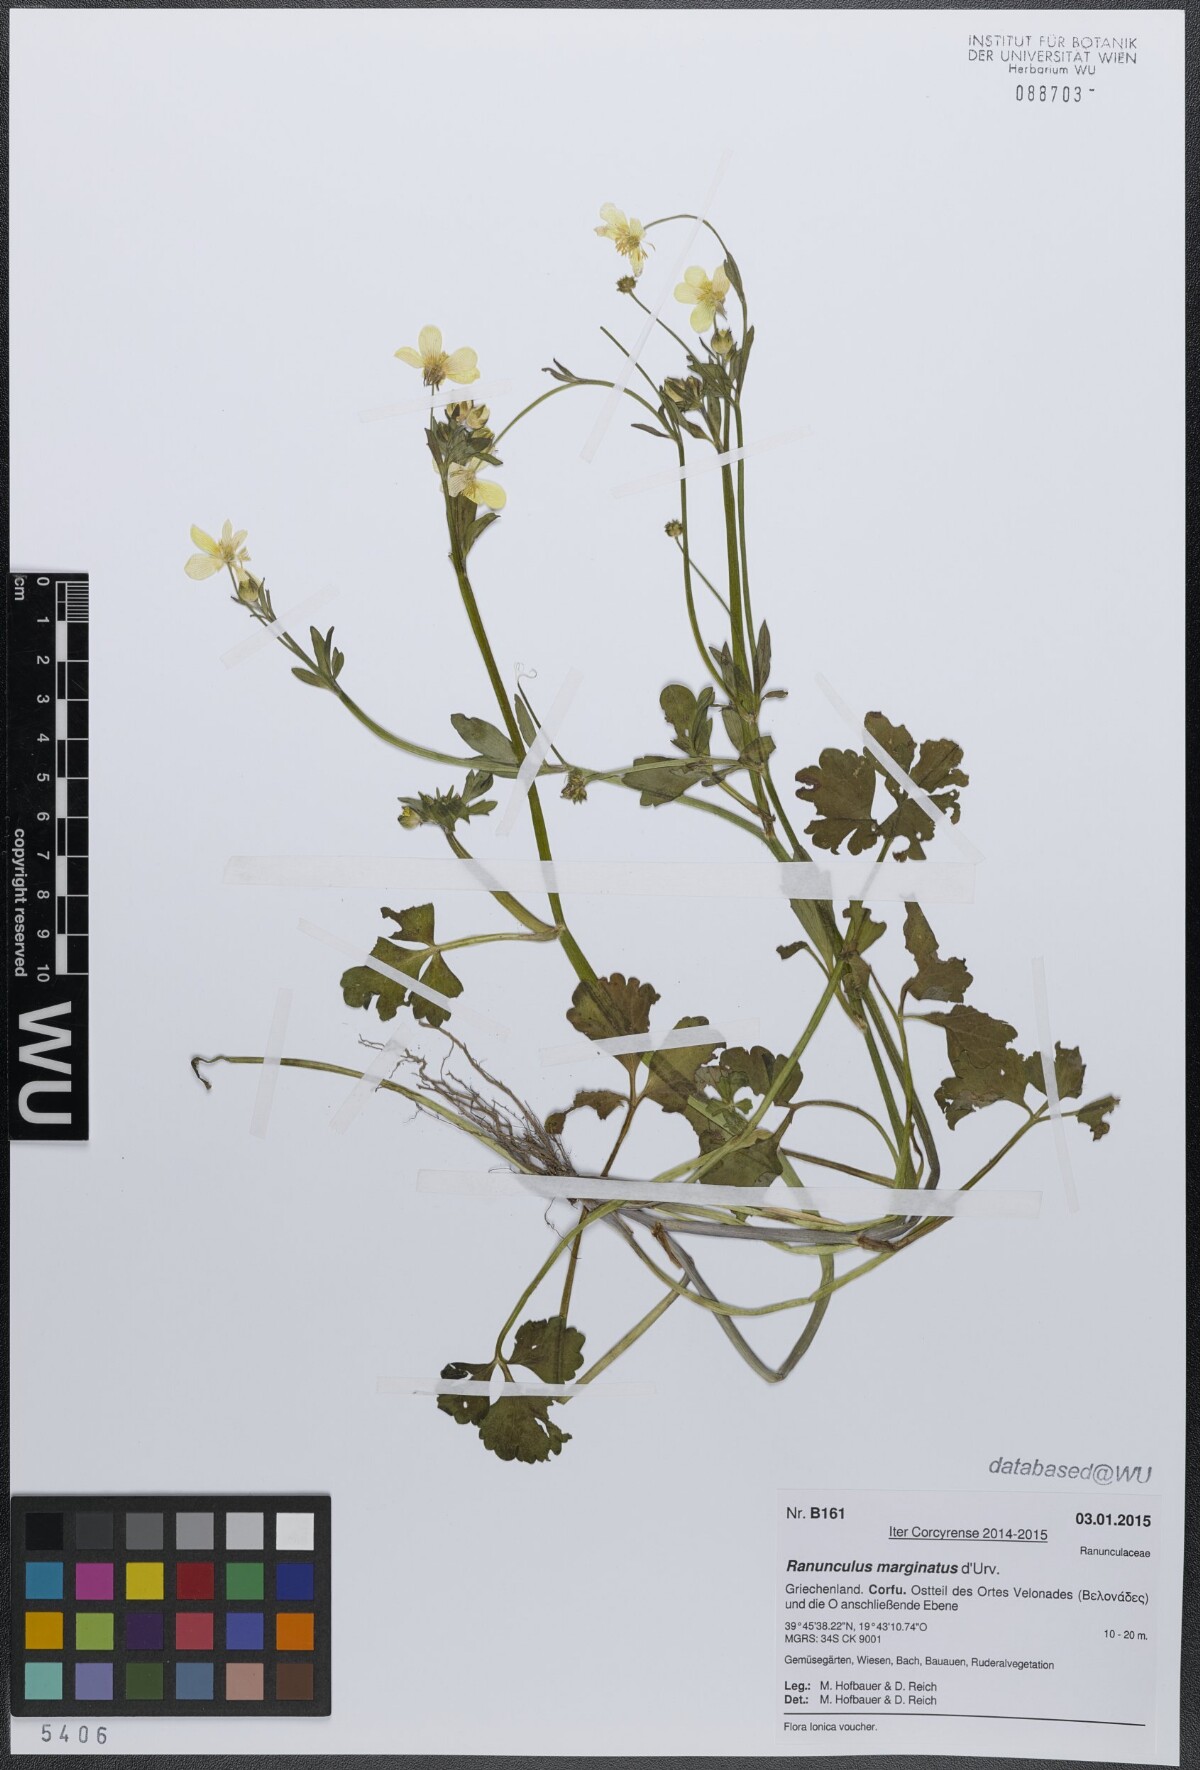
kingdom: Plantae
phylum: Tracheophyta
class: Magnoliopsida
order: Ranunculales
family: Ranunculaceae
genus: Ranunculus
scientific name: Ranunculus marginatus
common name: St. martin's buttercup
